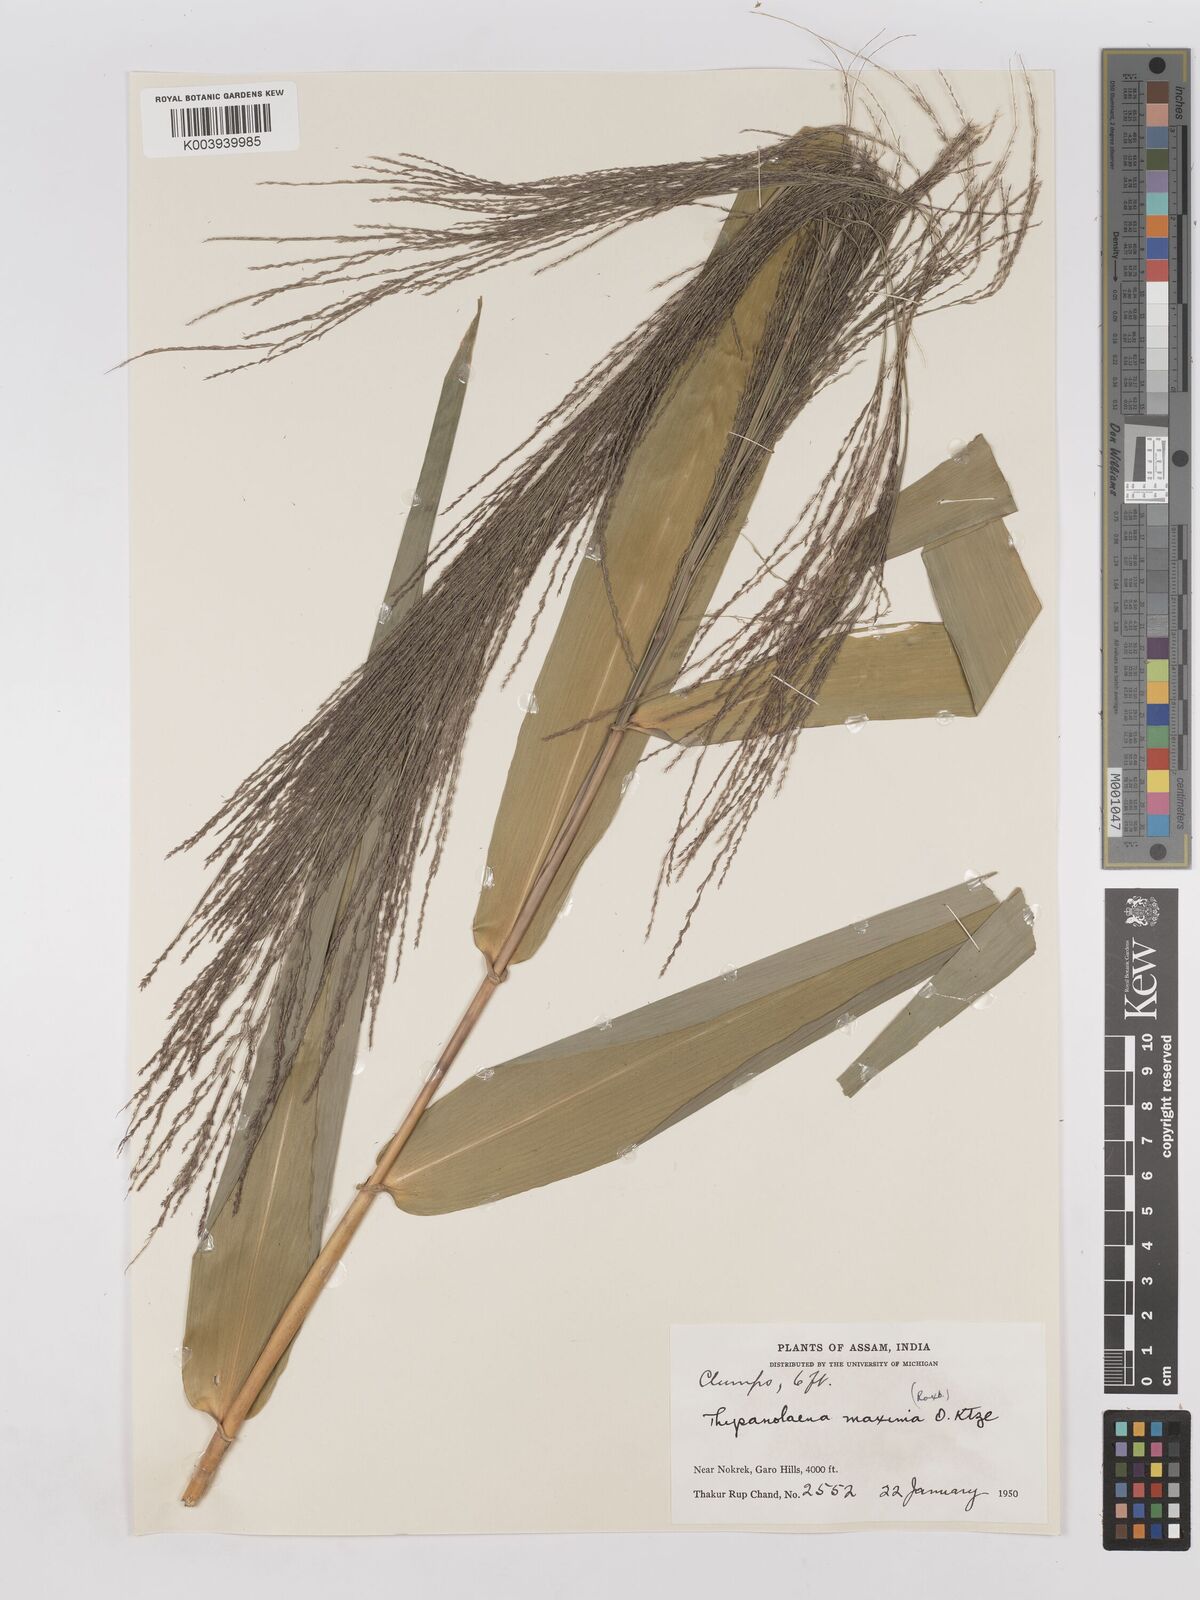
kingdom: Plantae
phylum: Tracheophyta
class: Liliopsida
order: Poales
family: Poaceae
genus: Thysanolaena
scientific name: Thysanolaena latifolia
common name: Tiger grass
